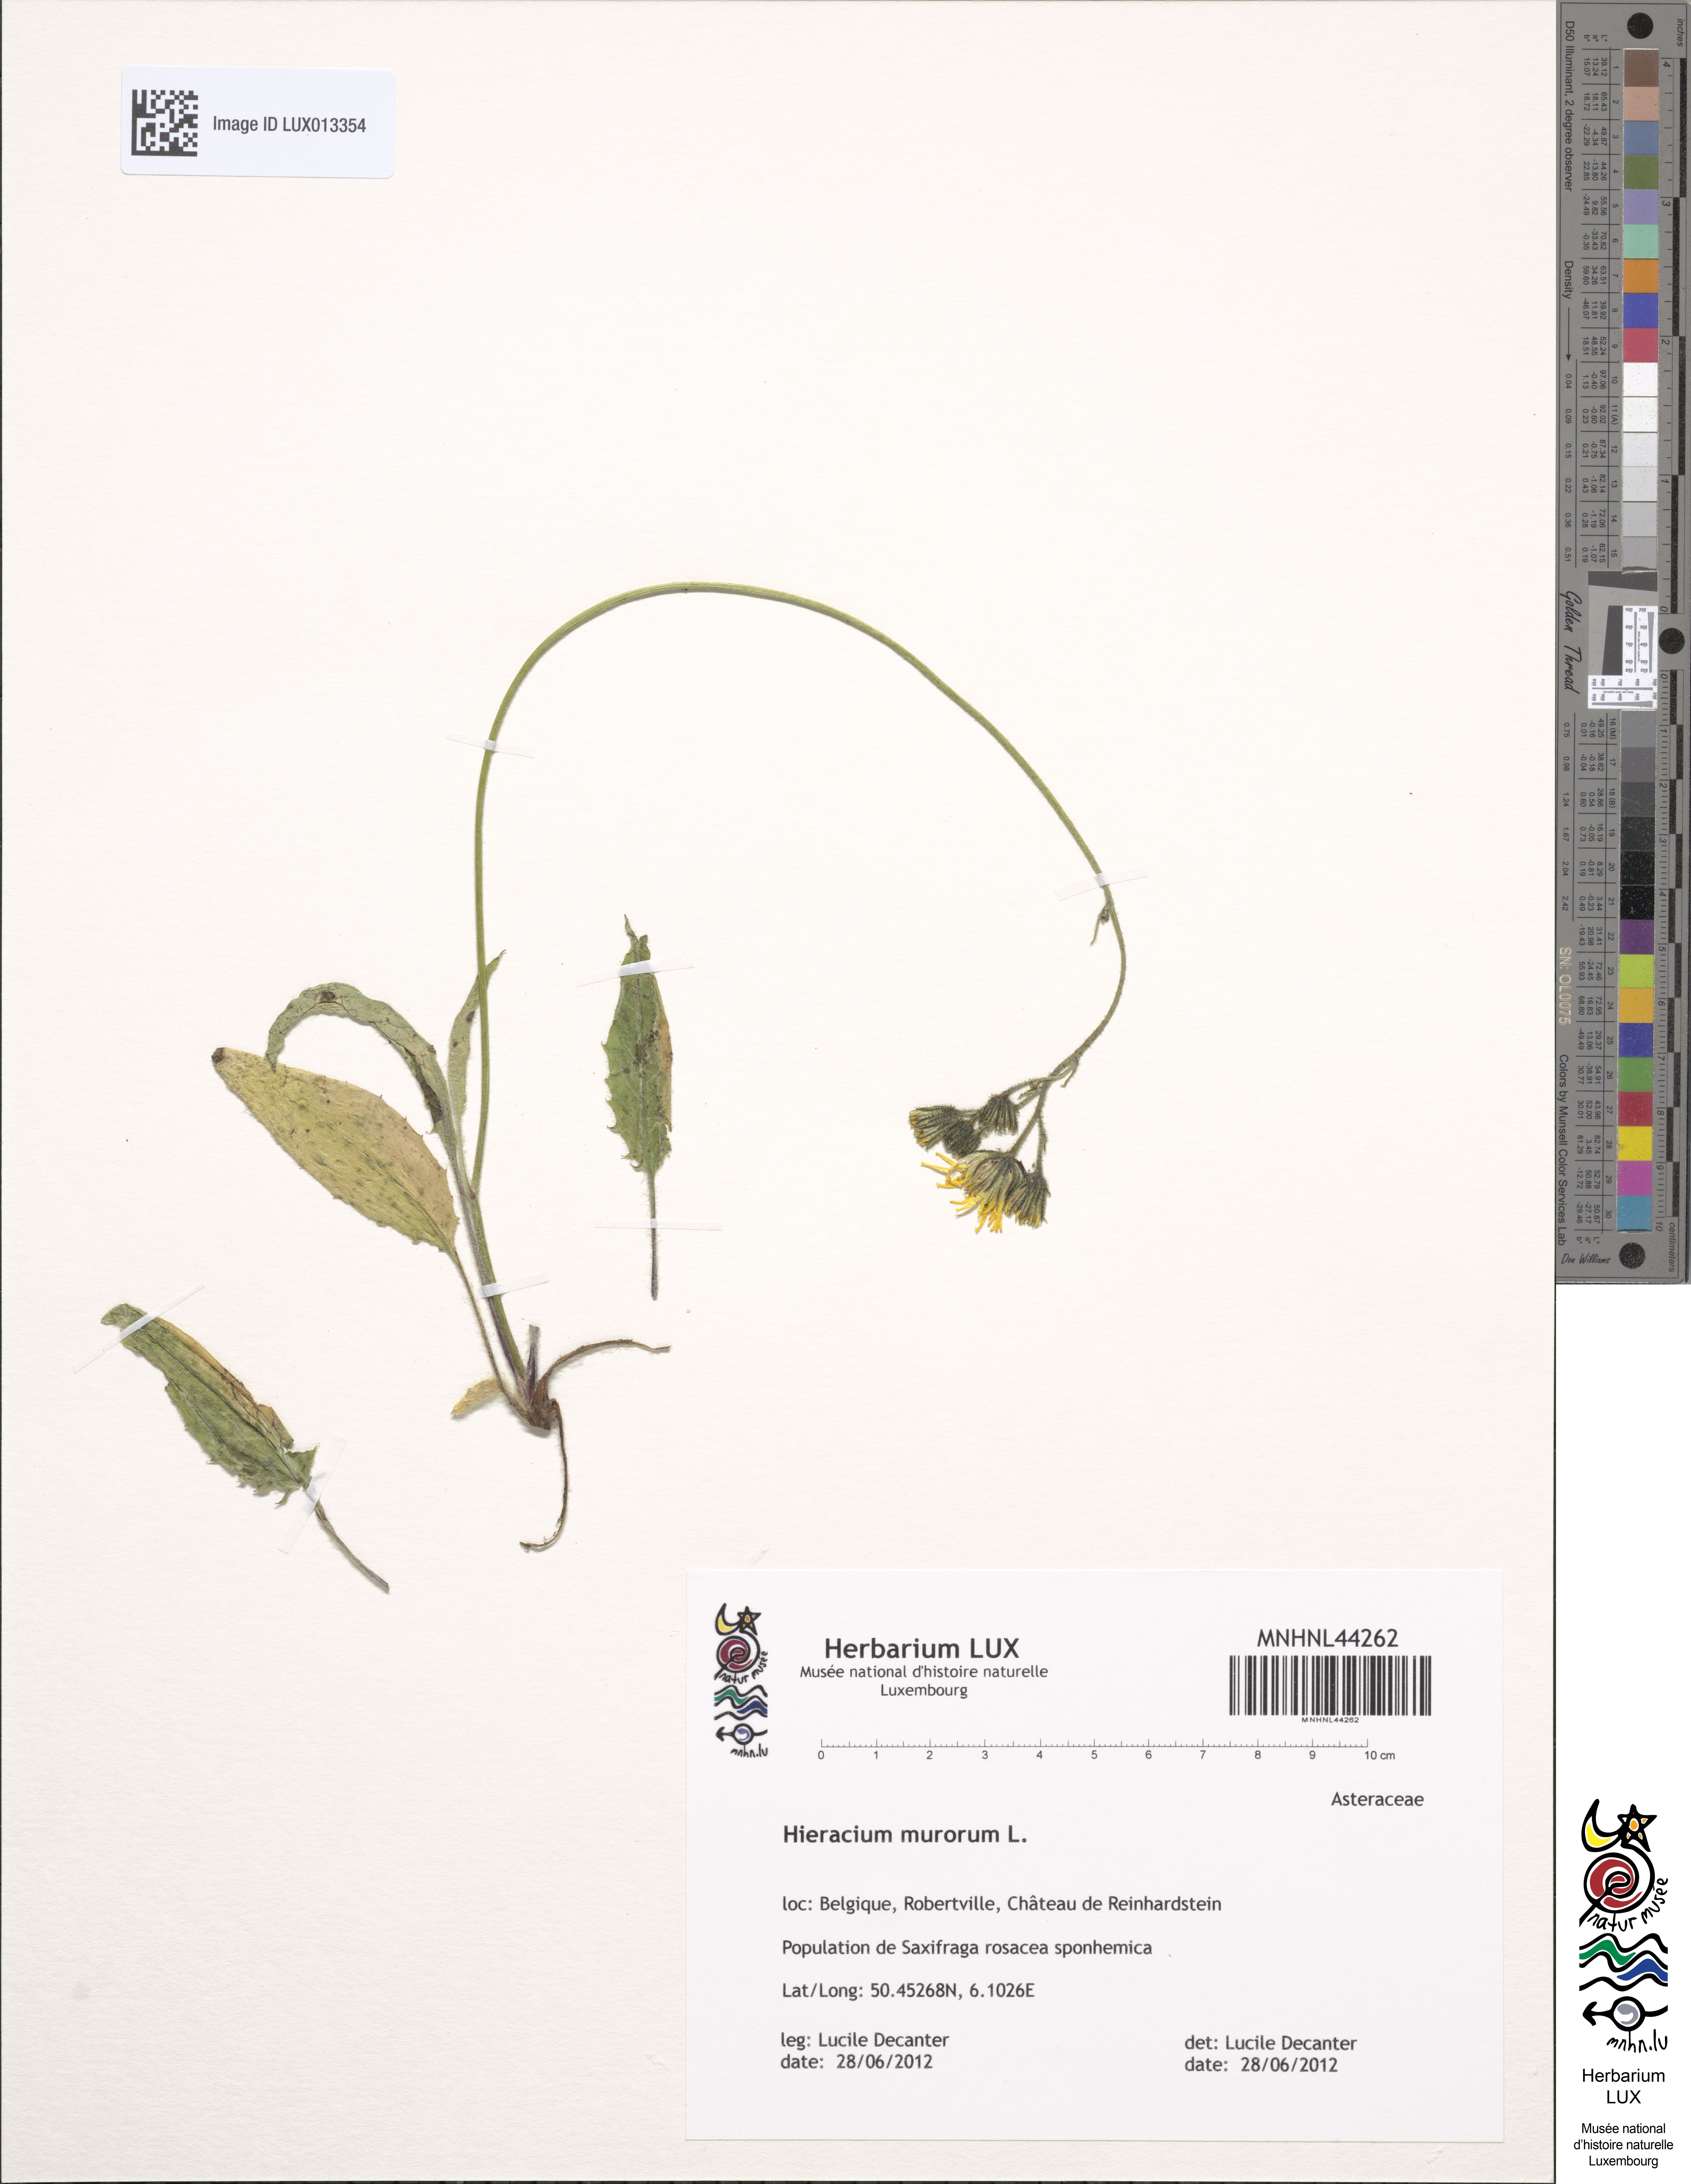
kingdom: Plantae
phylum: Tracheophyta
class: Magnoliopsida
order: Asterales
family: Asteraceae
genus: Hieracium
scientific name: Hieracium murorum
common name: Wall hawkweed
